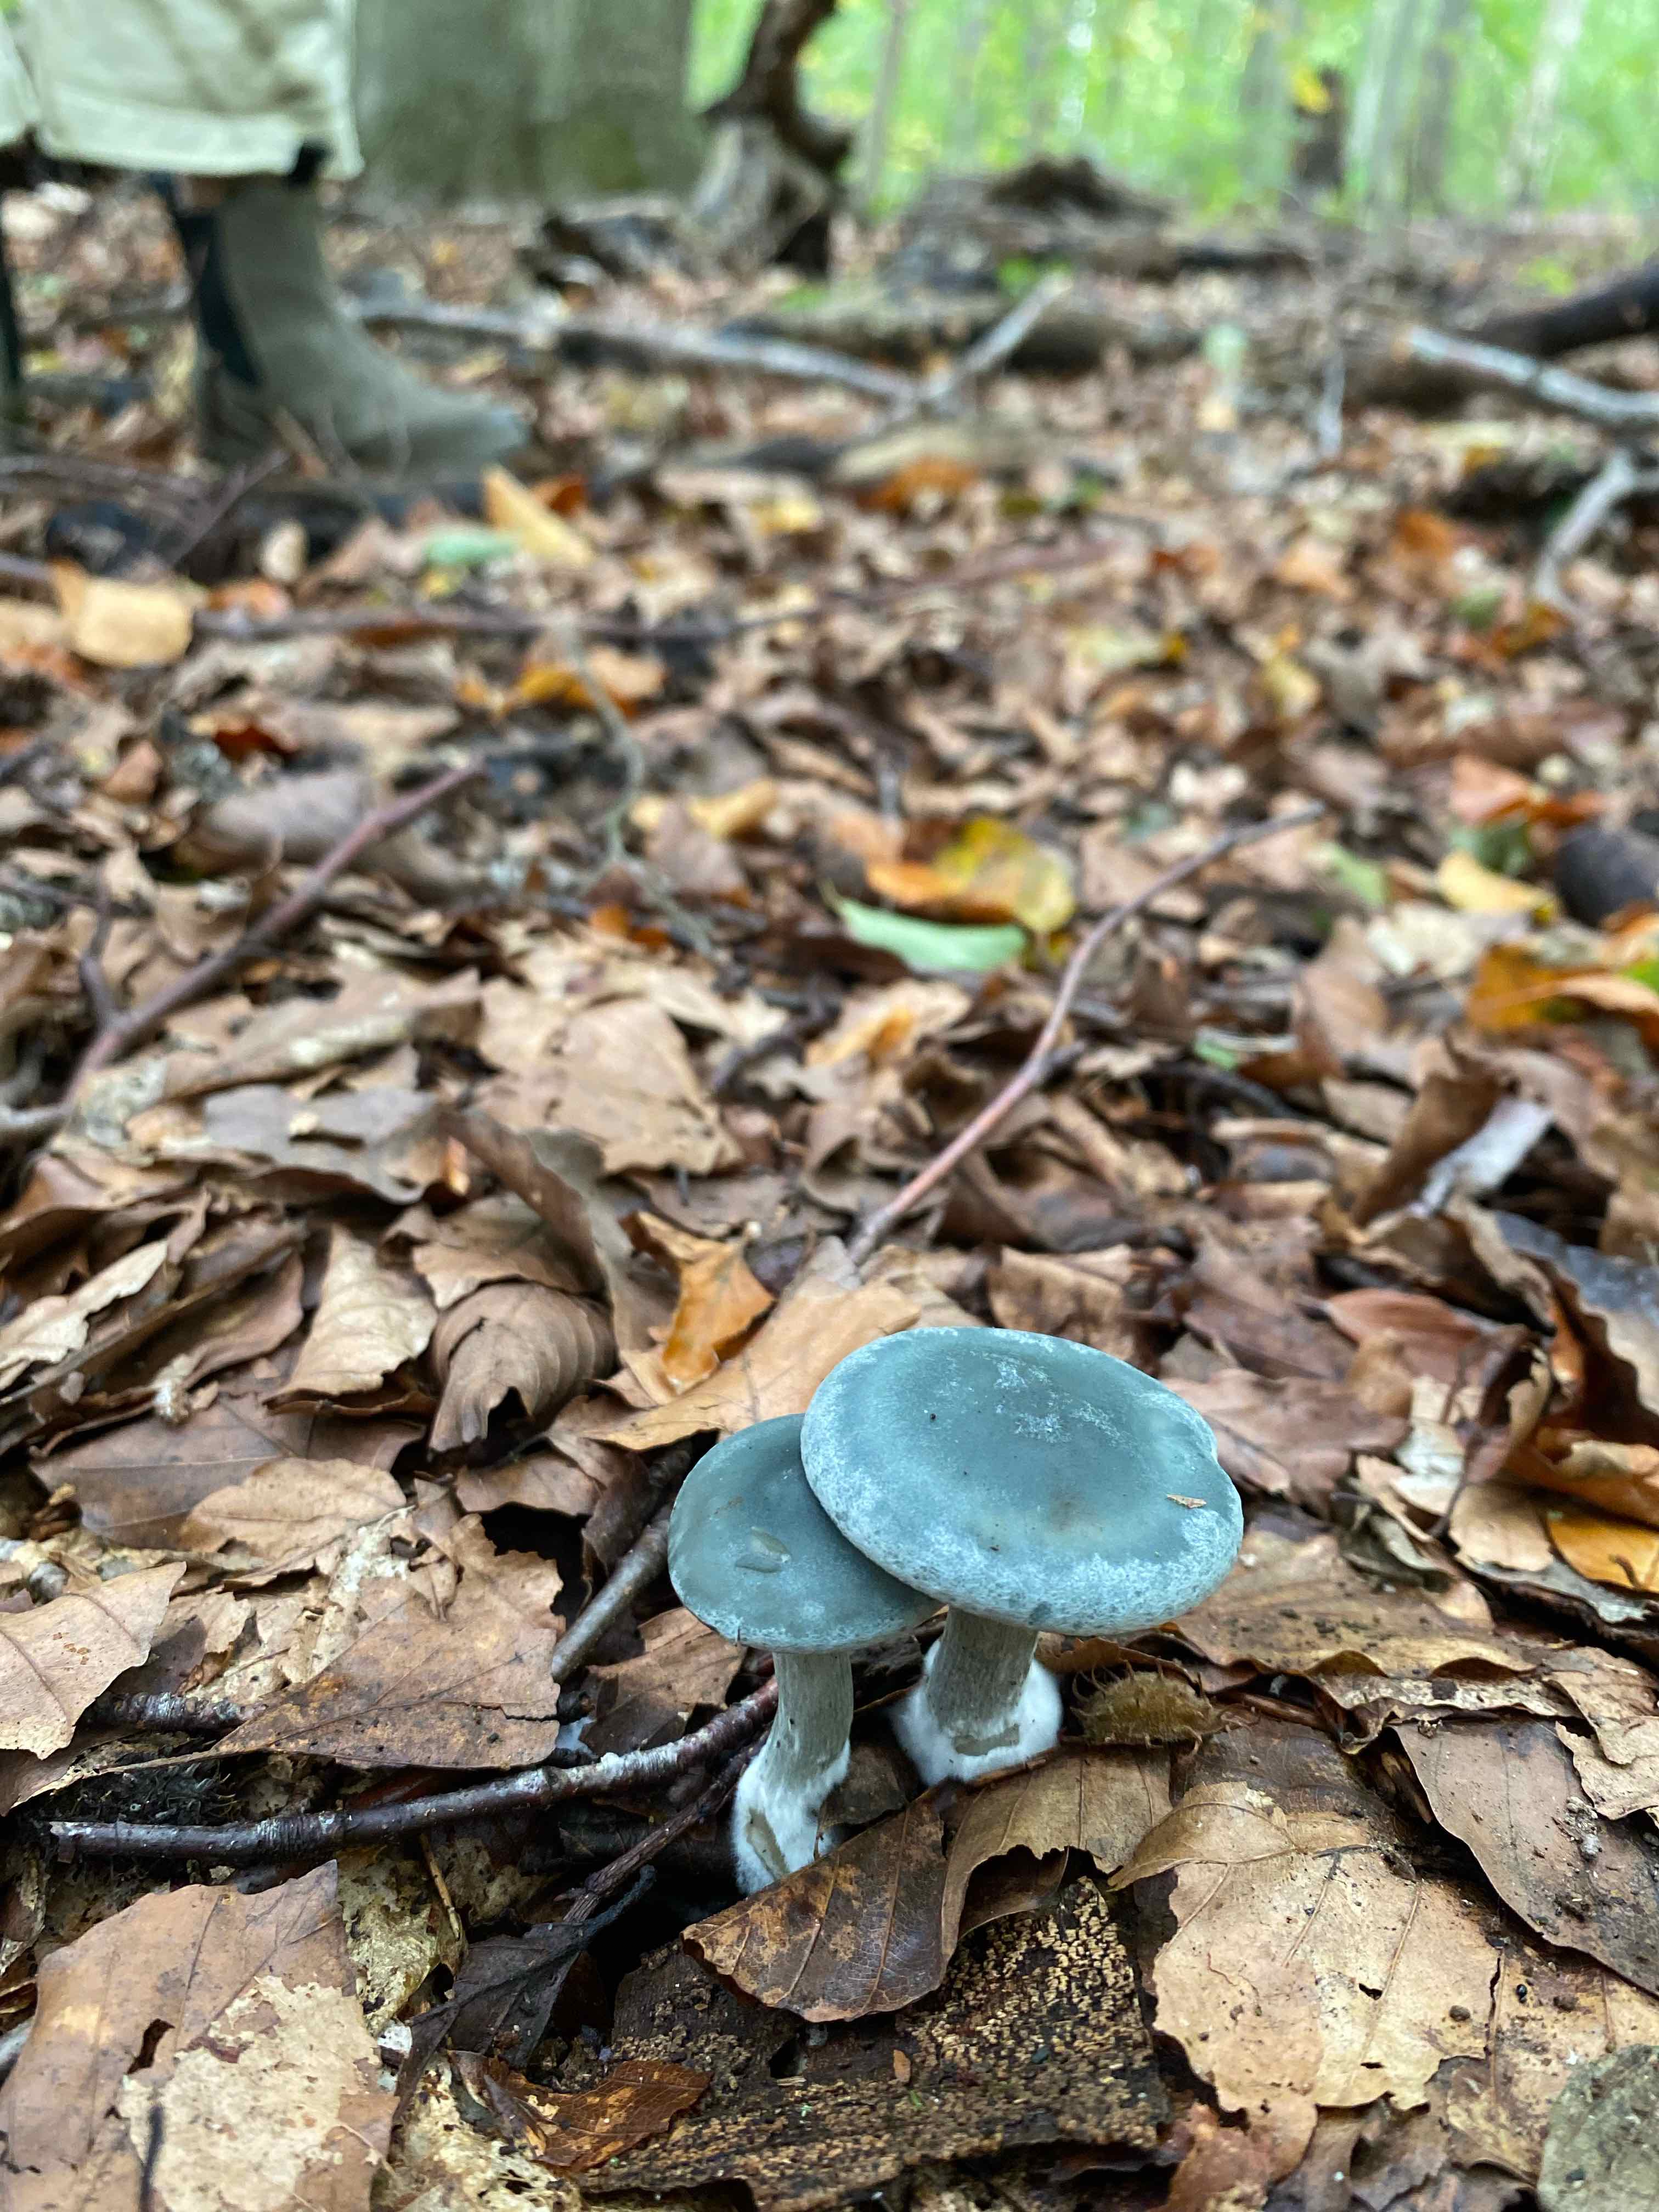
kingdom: Fungi
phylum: Basidiomycota
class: Agaricomycetes
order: Agaricales
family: Strophariaceae
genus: Stropharia
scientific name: Stropharia cyanea
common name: blågrøn bredblad
